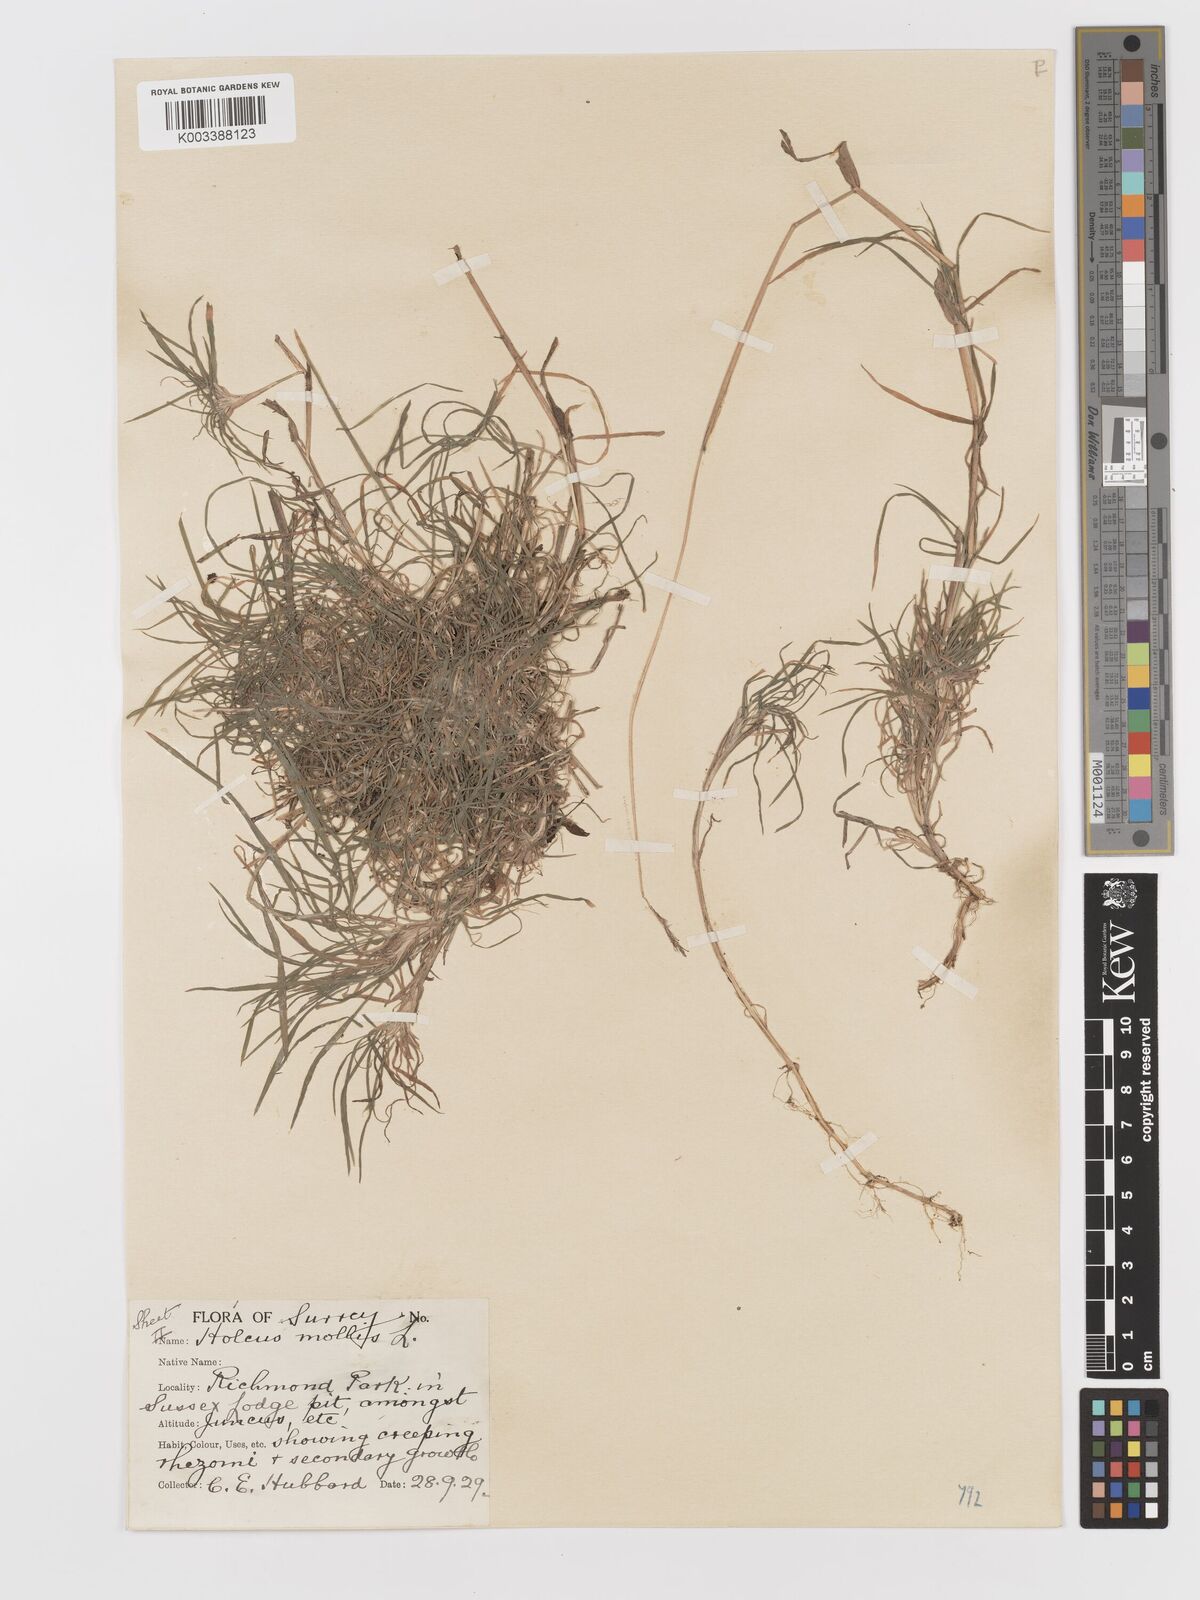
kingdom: Plantae
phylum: Tracheophyta
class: Liliopsida
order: Poales
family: Poaceae
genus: Holcus
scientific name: Holcus mollis
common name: Creeping velvetgrass
